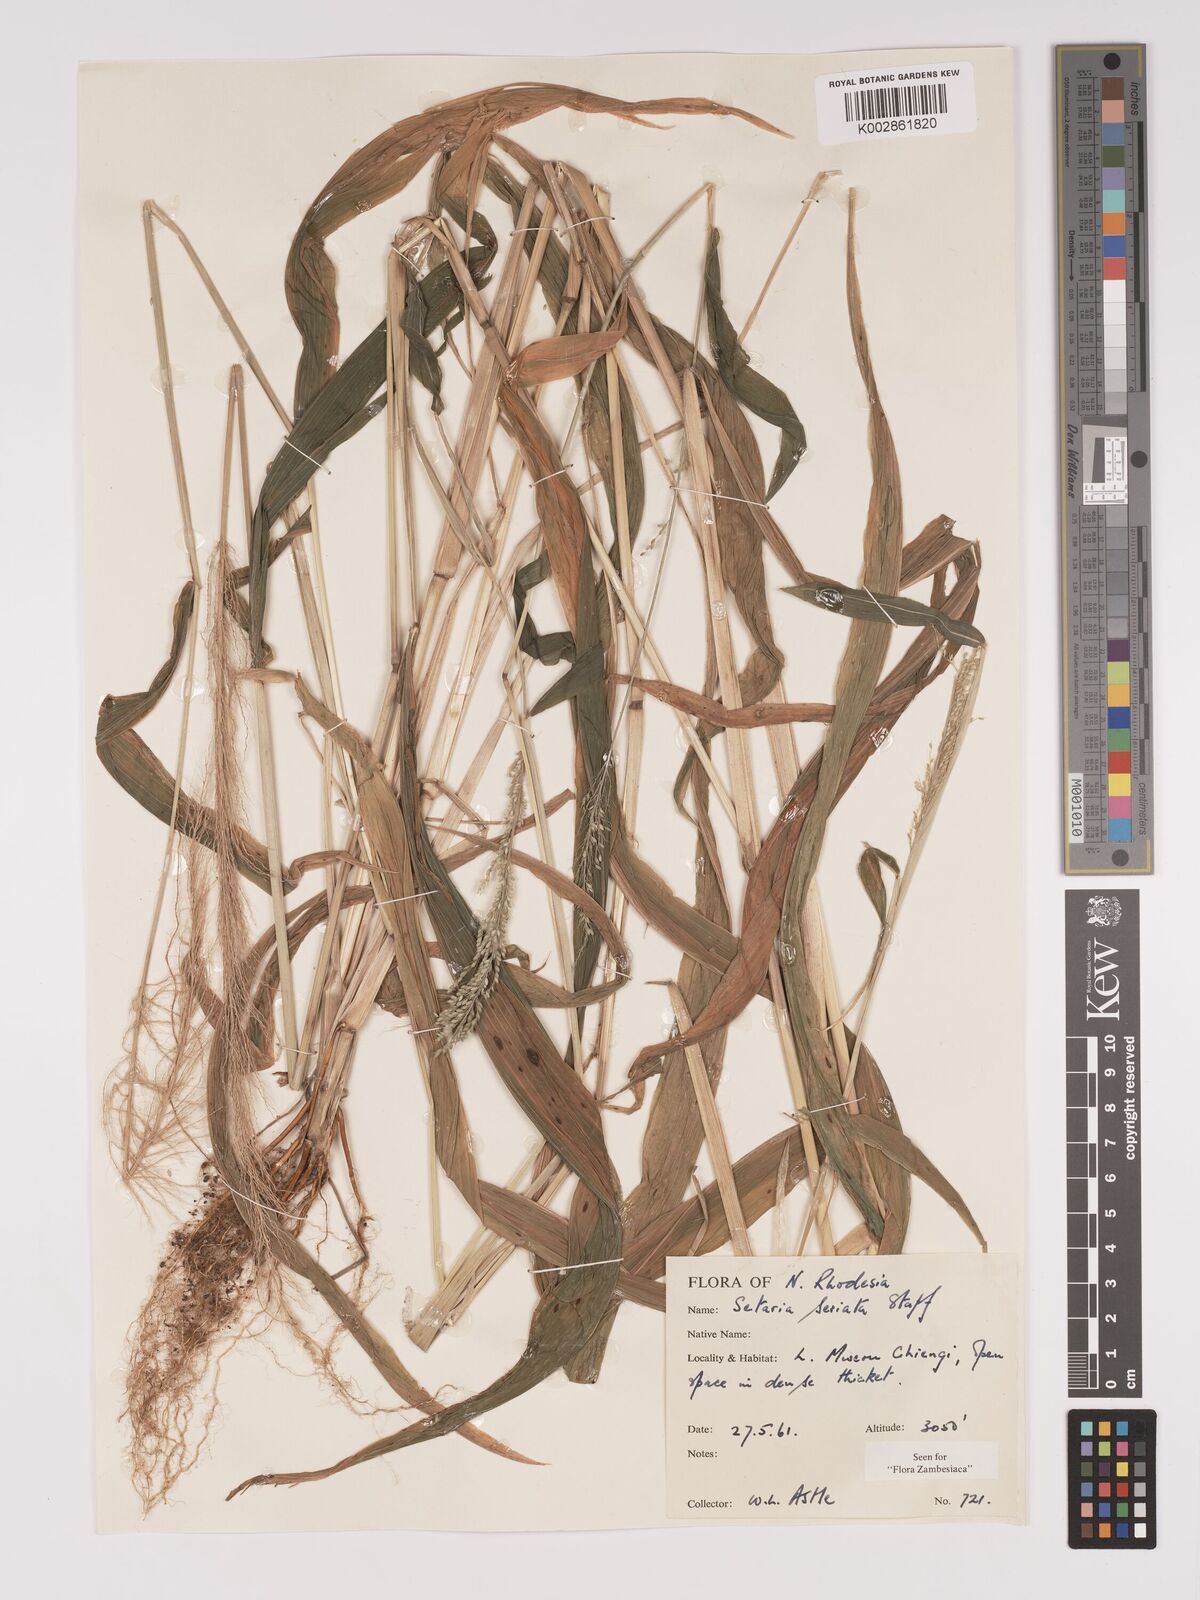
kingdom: Plantae
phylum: Tracheophyta
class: Liliopsida
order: Poales
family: Poaceae
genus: Setaria
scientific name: Setaria kagerensis
